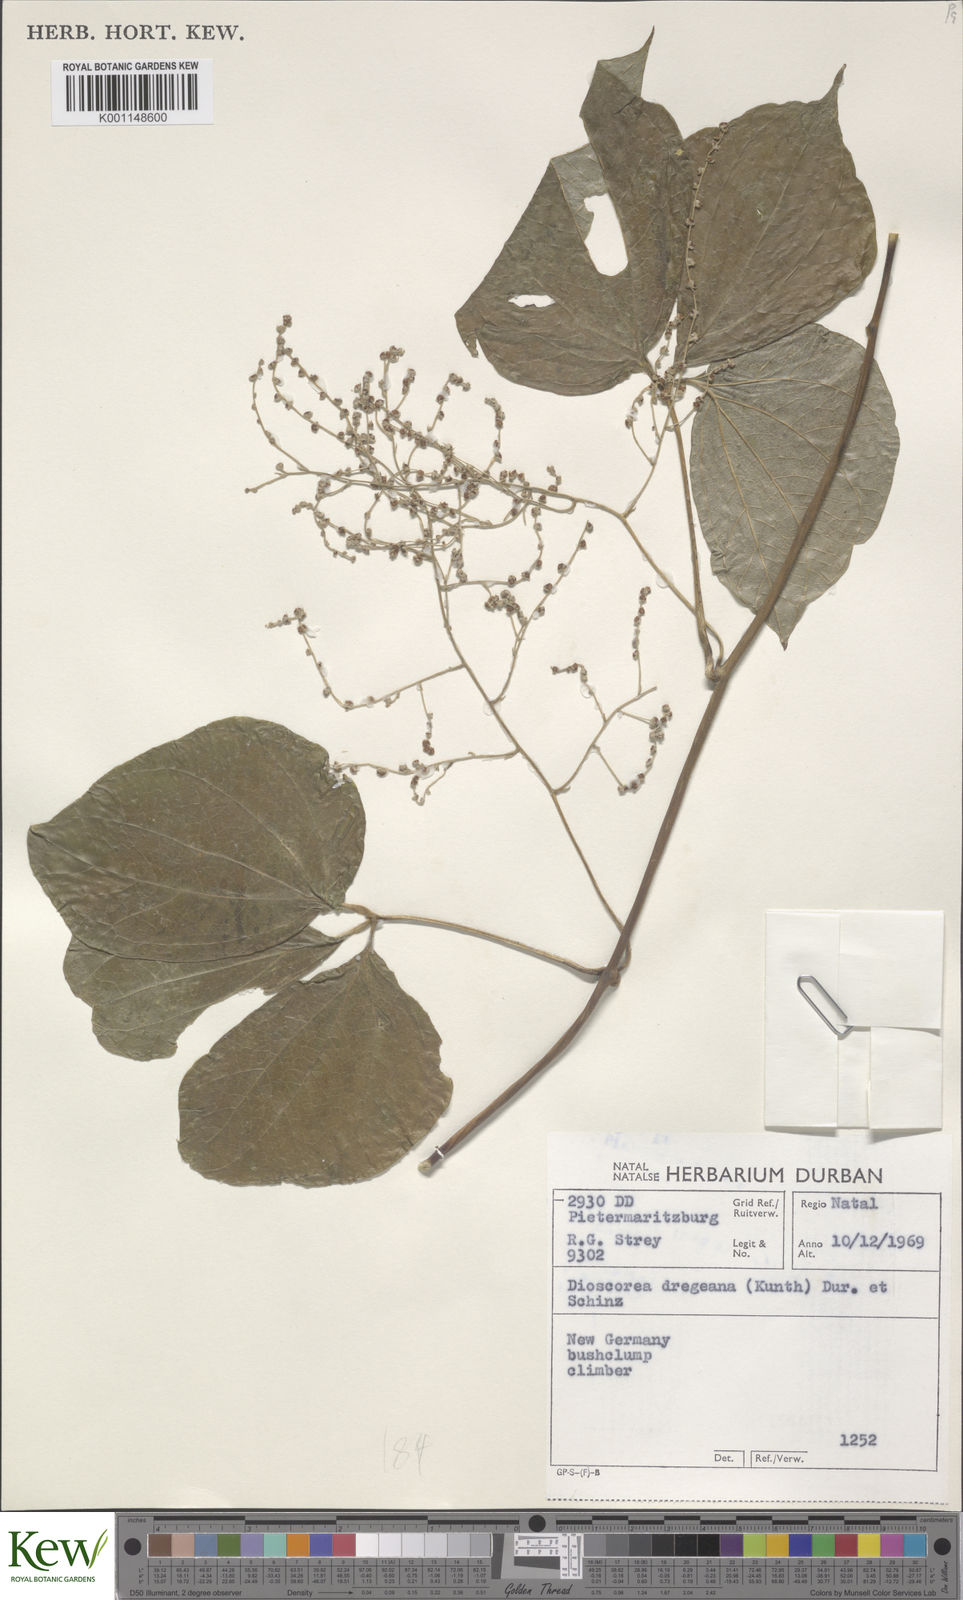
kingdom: Plantae
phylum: Tracheophyta
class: Liliopsida
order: Dioscoreales
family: Dioscoreaceae
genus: Dioscorea
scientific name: Dioscorea dregeana
